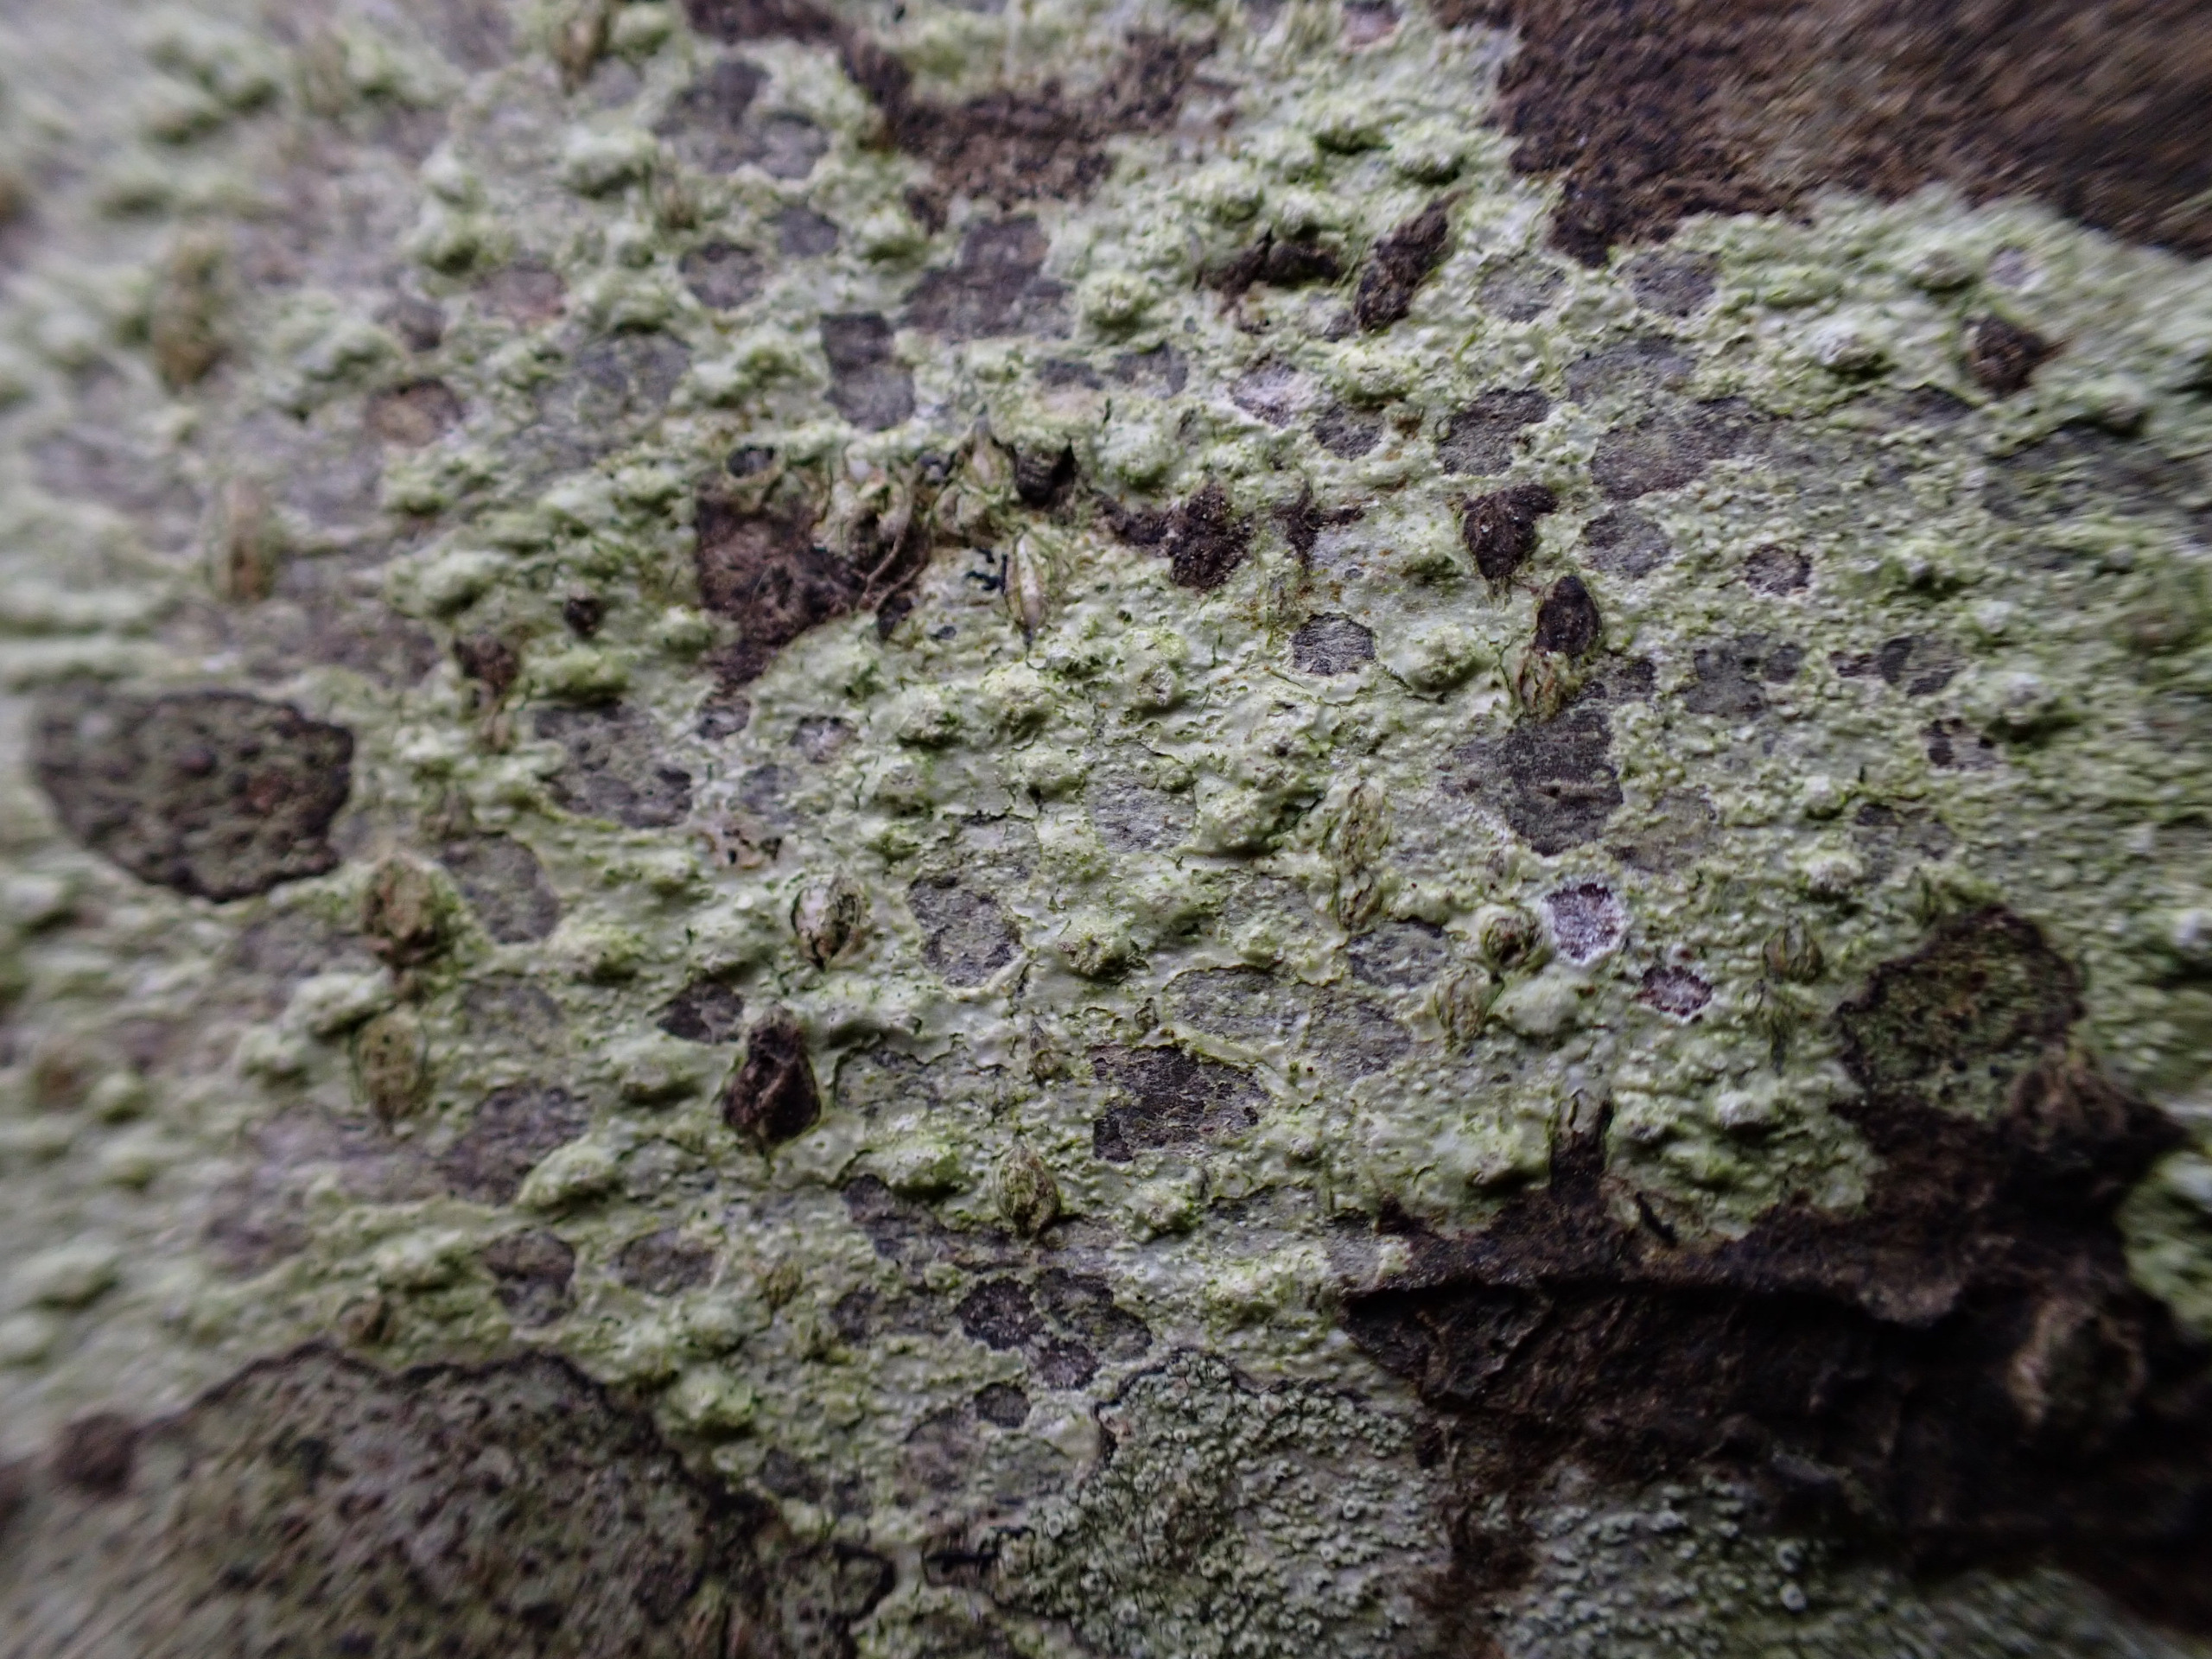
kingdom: Fungi
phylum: Ascomycota
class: Lecanoromycetes
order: Pertusariales
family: Pertusariaceae
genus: Pertusaria
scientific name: Pertusaria leioplaca
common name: Tynd prikvortelav
